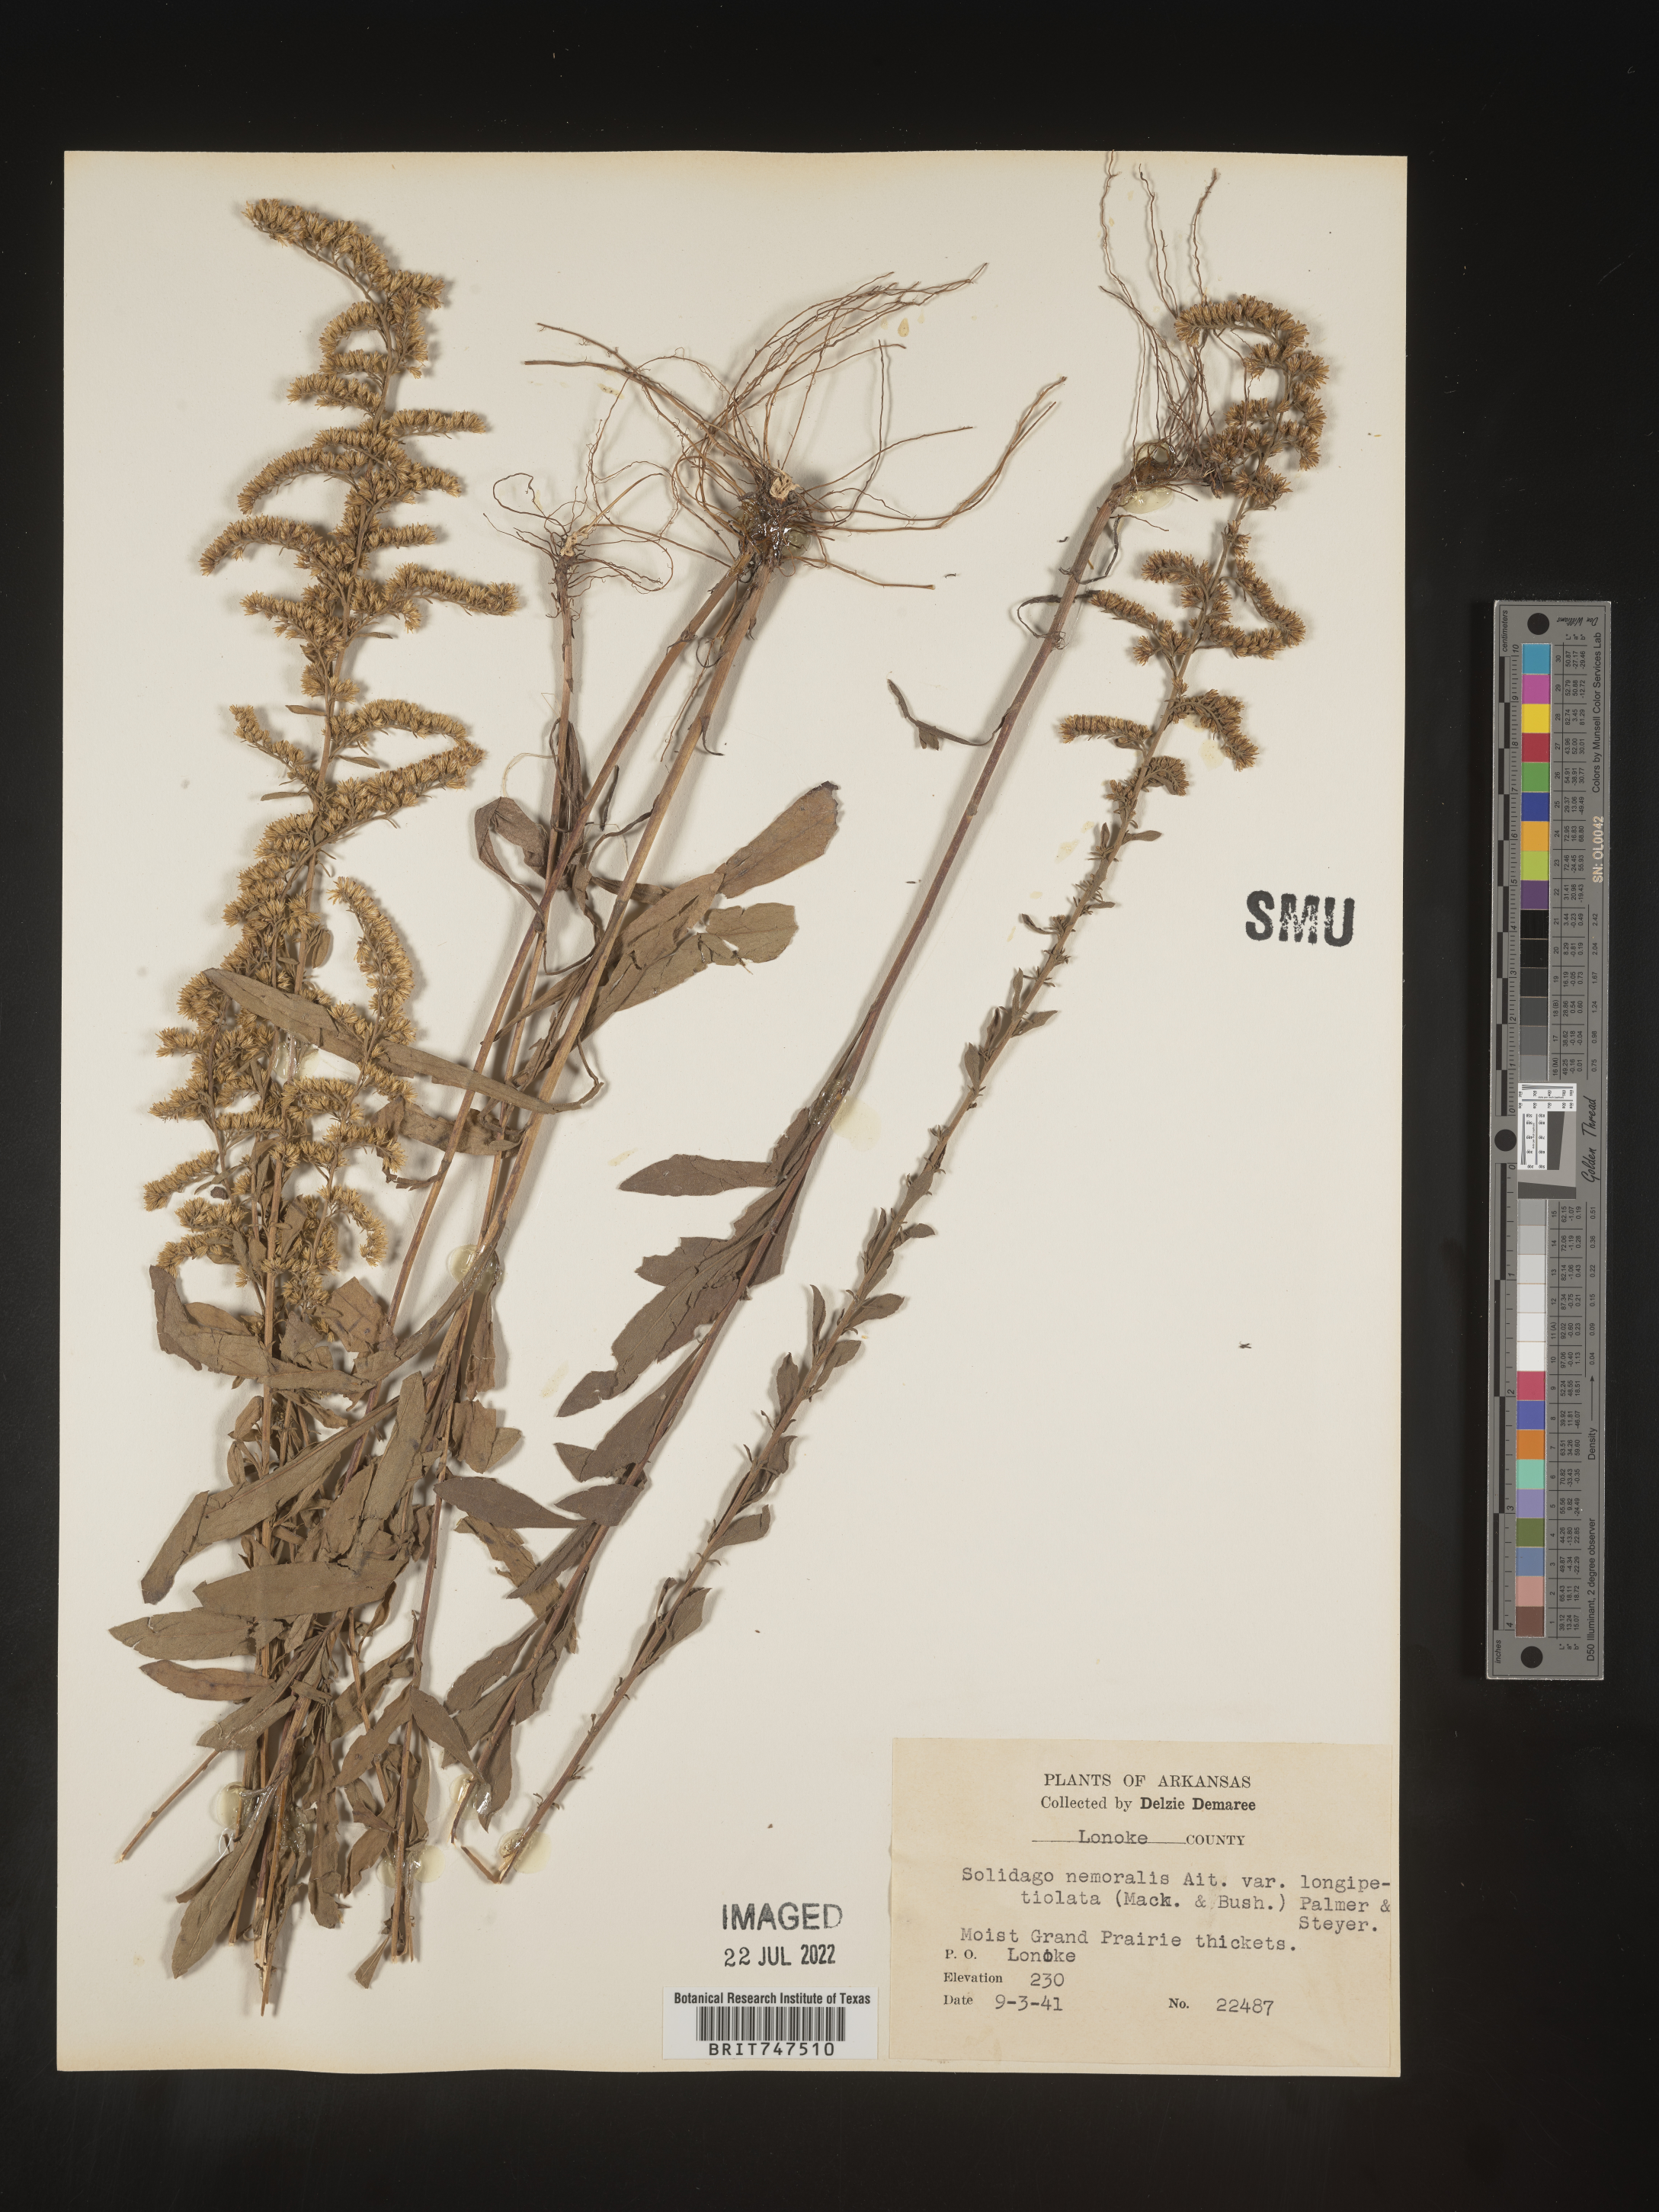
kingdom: Plantae
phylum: Tracheophyta
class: Magnoliopsida
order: Asterales
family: Asteraceae
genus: Solidago
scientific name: Solidago nemoralis
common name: Grey goldenrod
